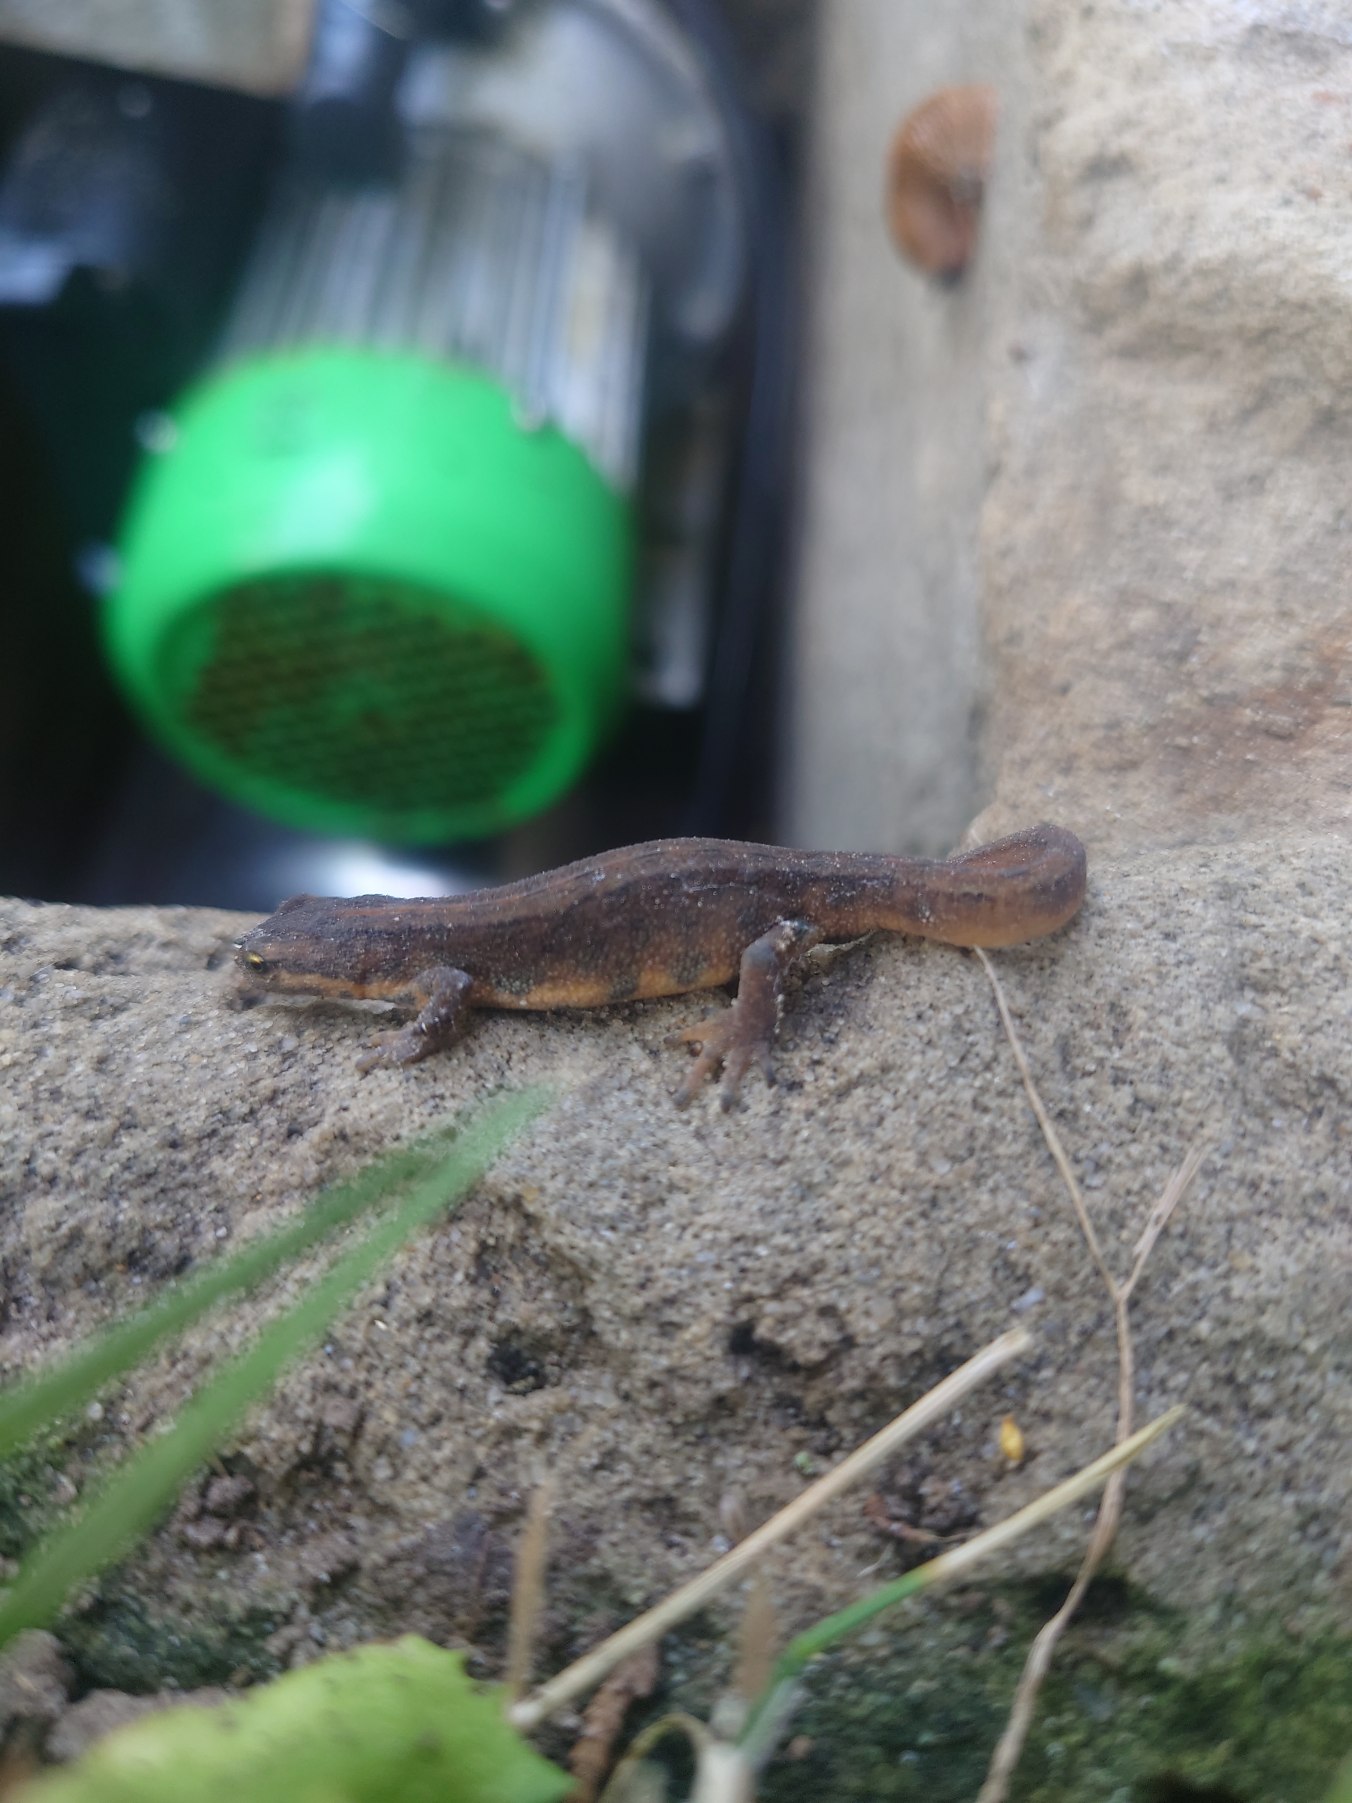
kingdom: Animalia
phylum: Chordata
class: Amphibia
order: Caudata
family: Salamandridae
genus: Lissotriton
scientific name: Lissotriton vulgaris
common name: Lille vandsalamander
